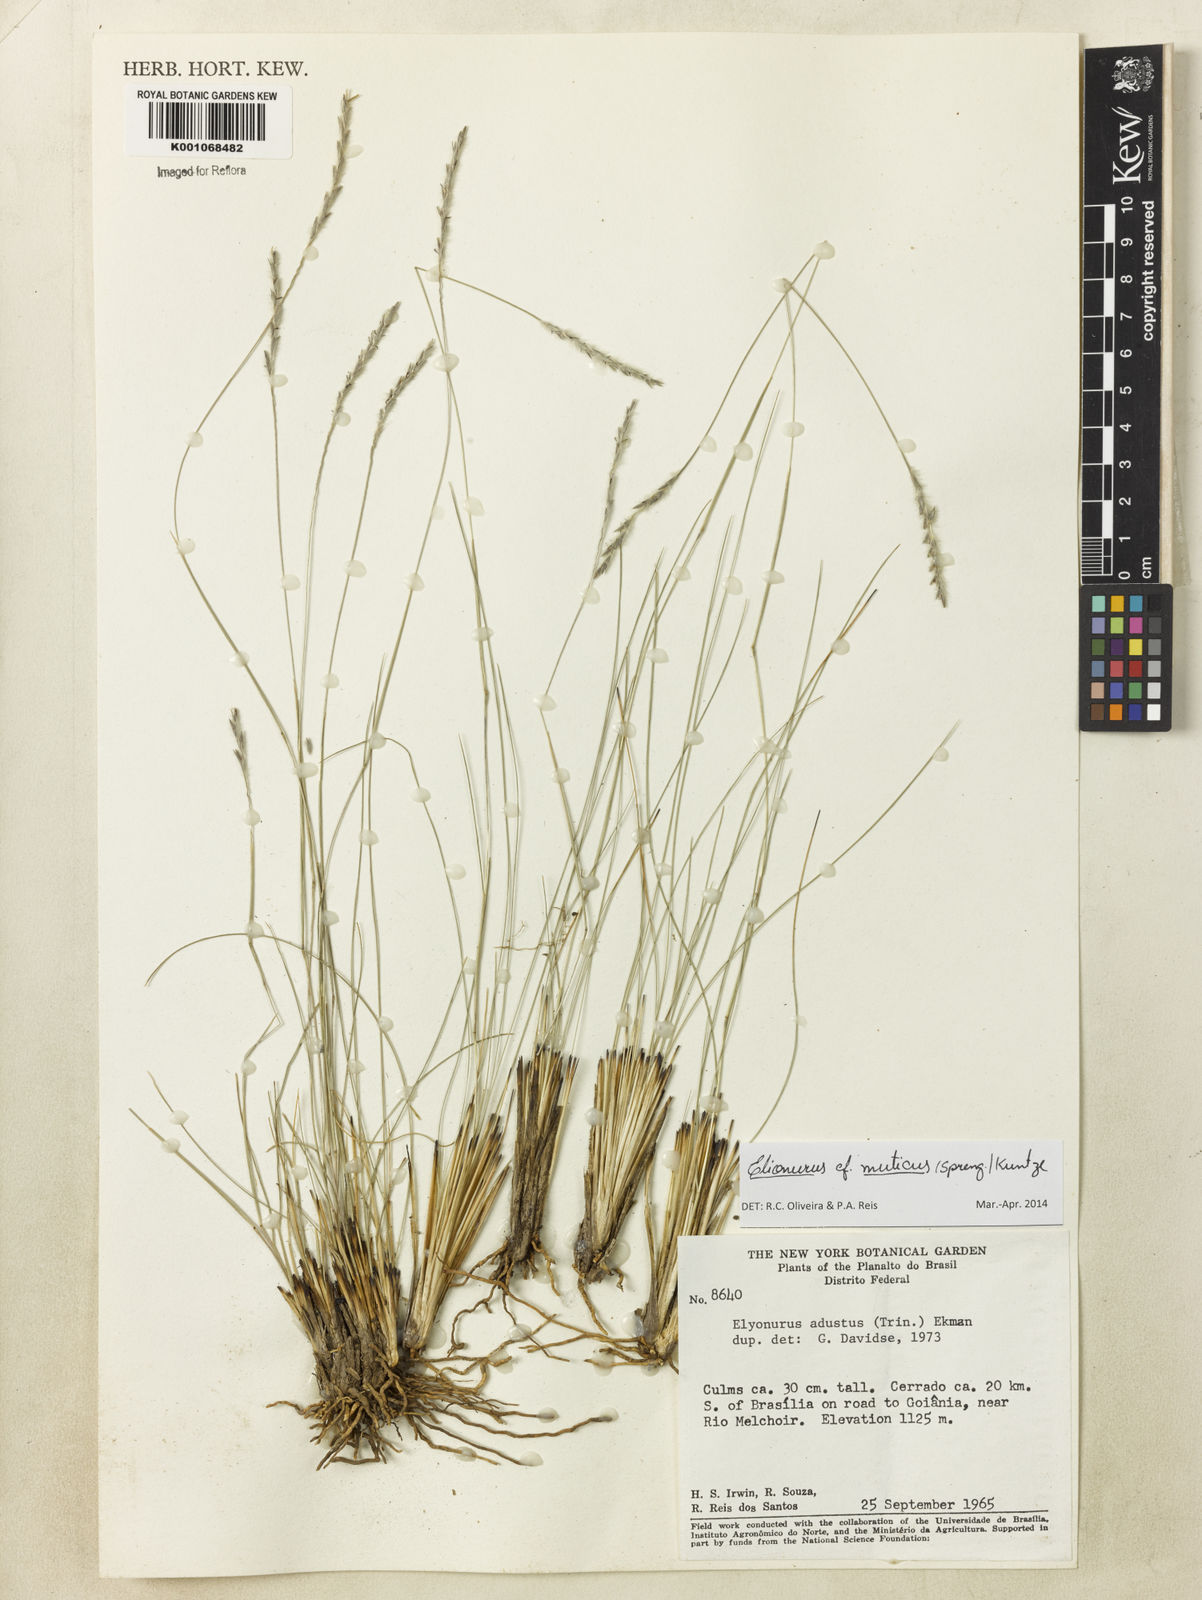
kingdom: Plantae
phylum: Tracheophyta
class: Liliopsida
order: Poales
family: Poaceae
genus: Elionurus
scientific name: Elionurus muticus
